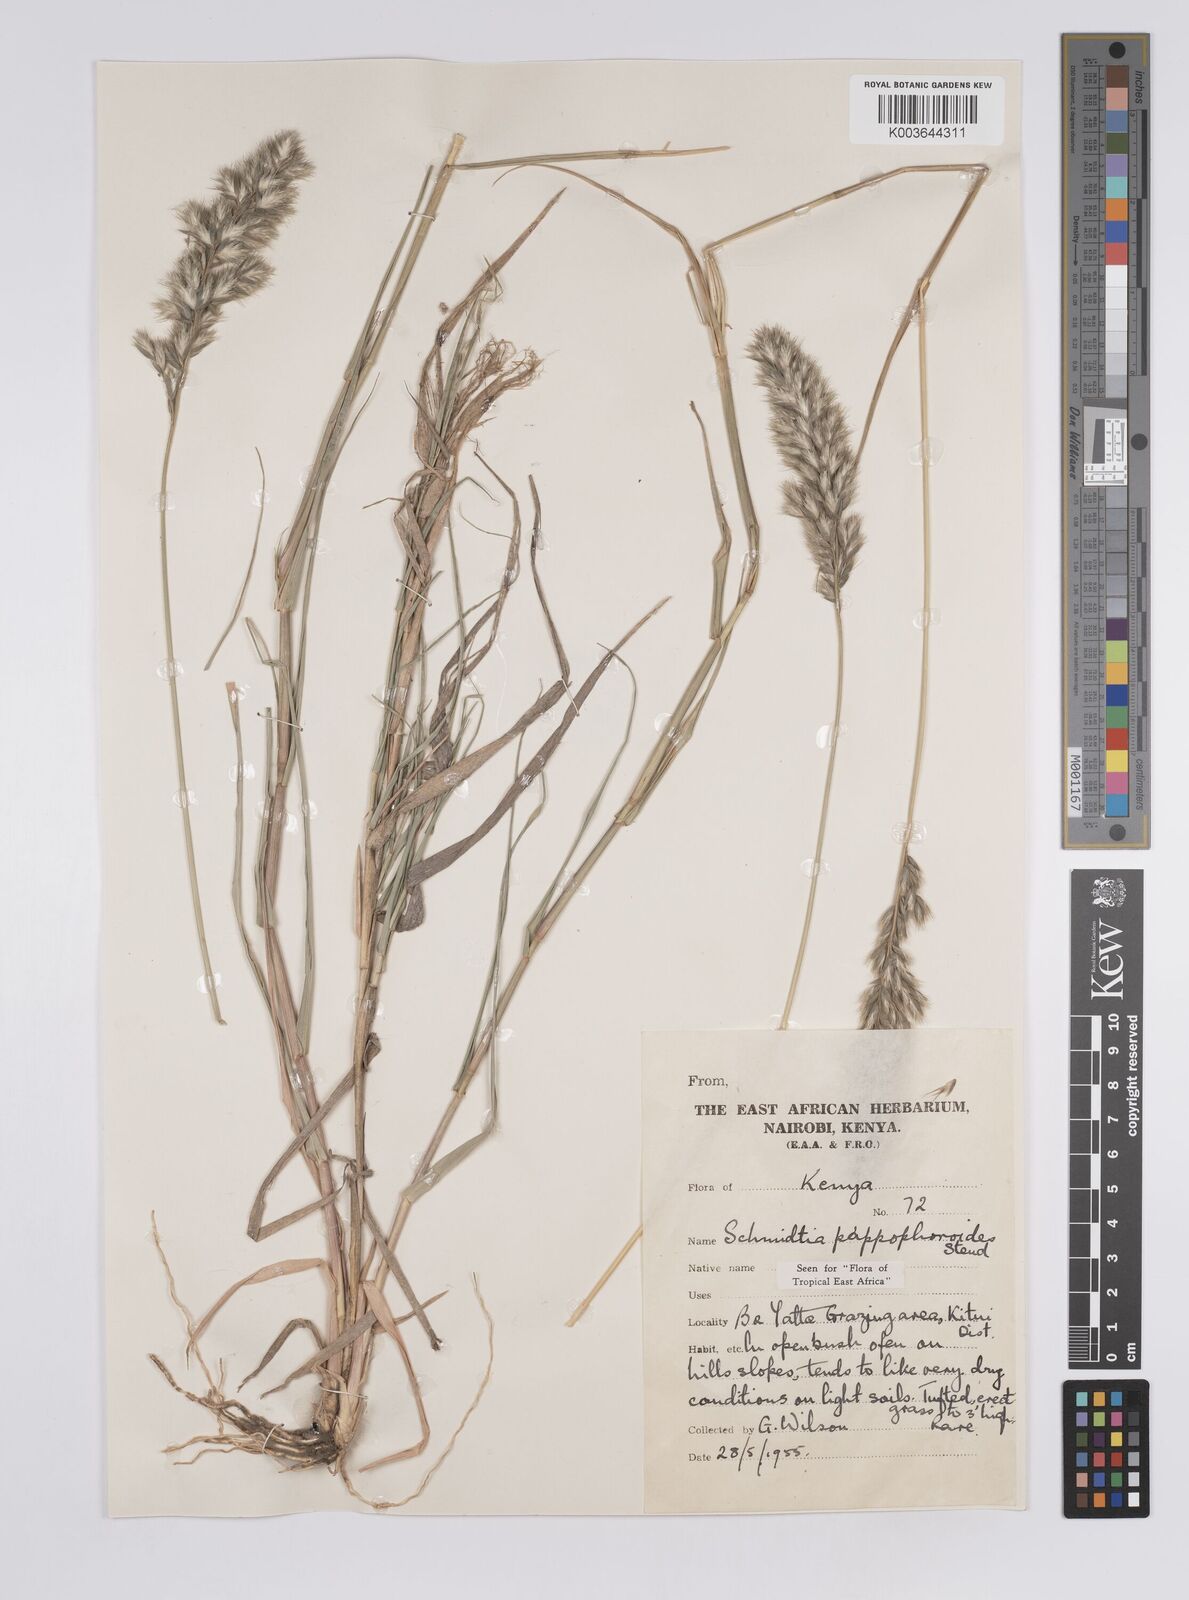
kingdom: Plantae
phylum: Tracheophyta
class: Liliopsida
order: Poales
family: Poaceae
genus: Schmidtia
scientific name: Schmidtia pappophoroides
